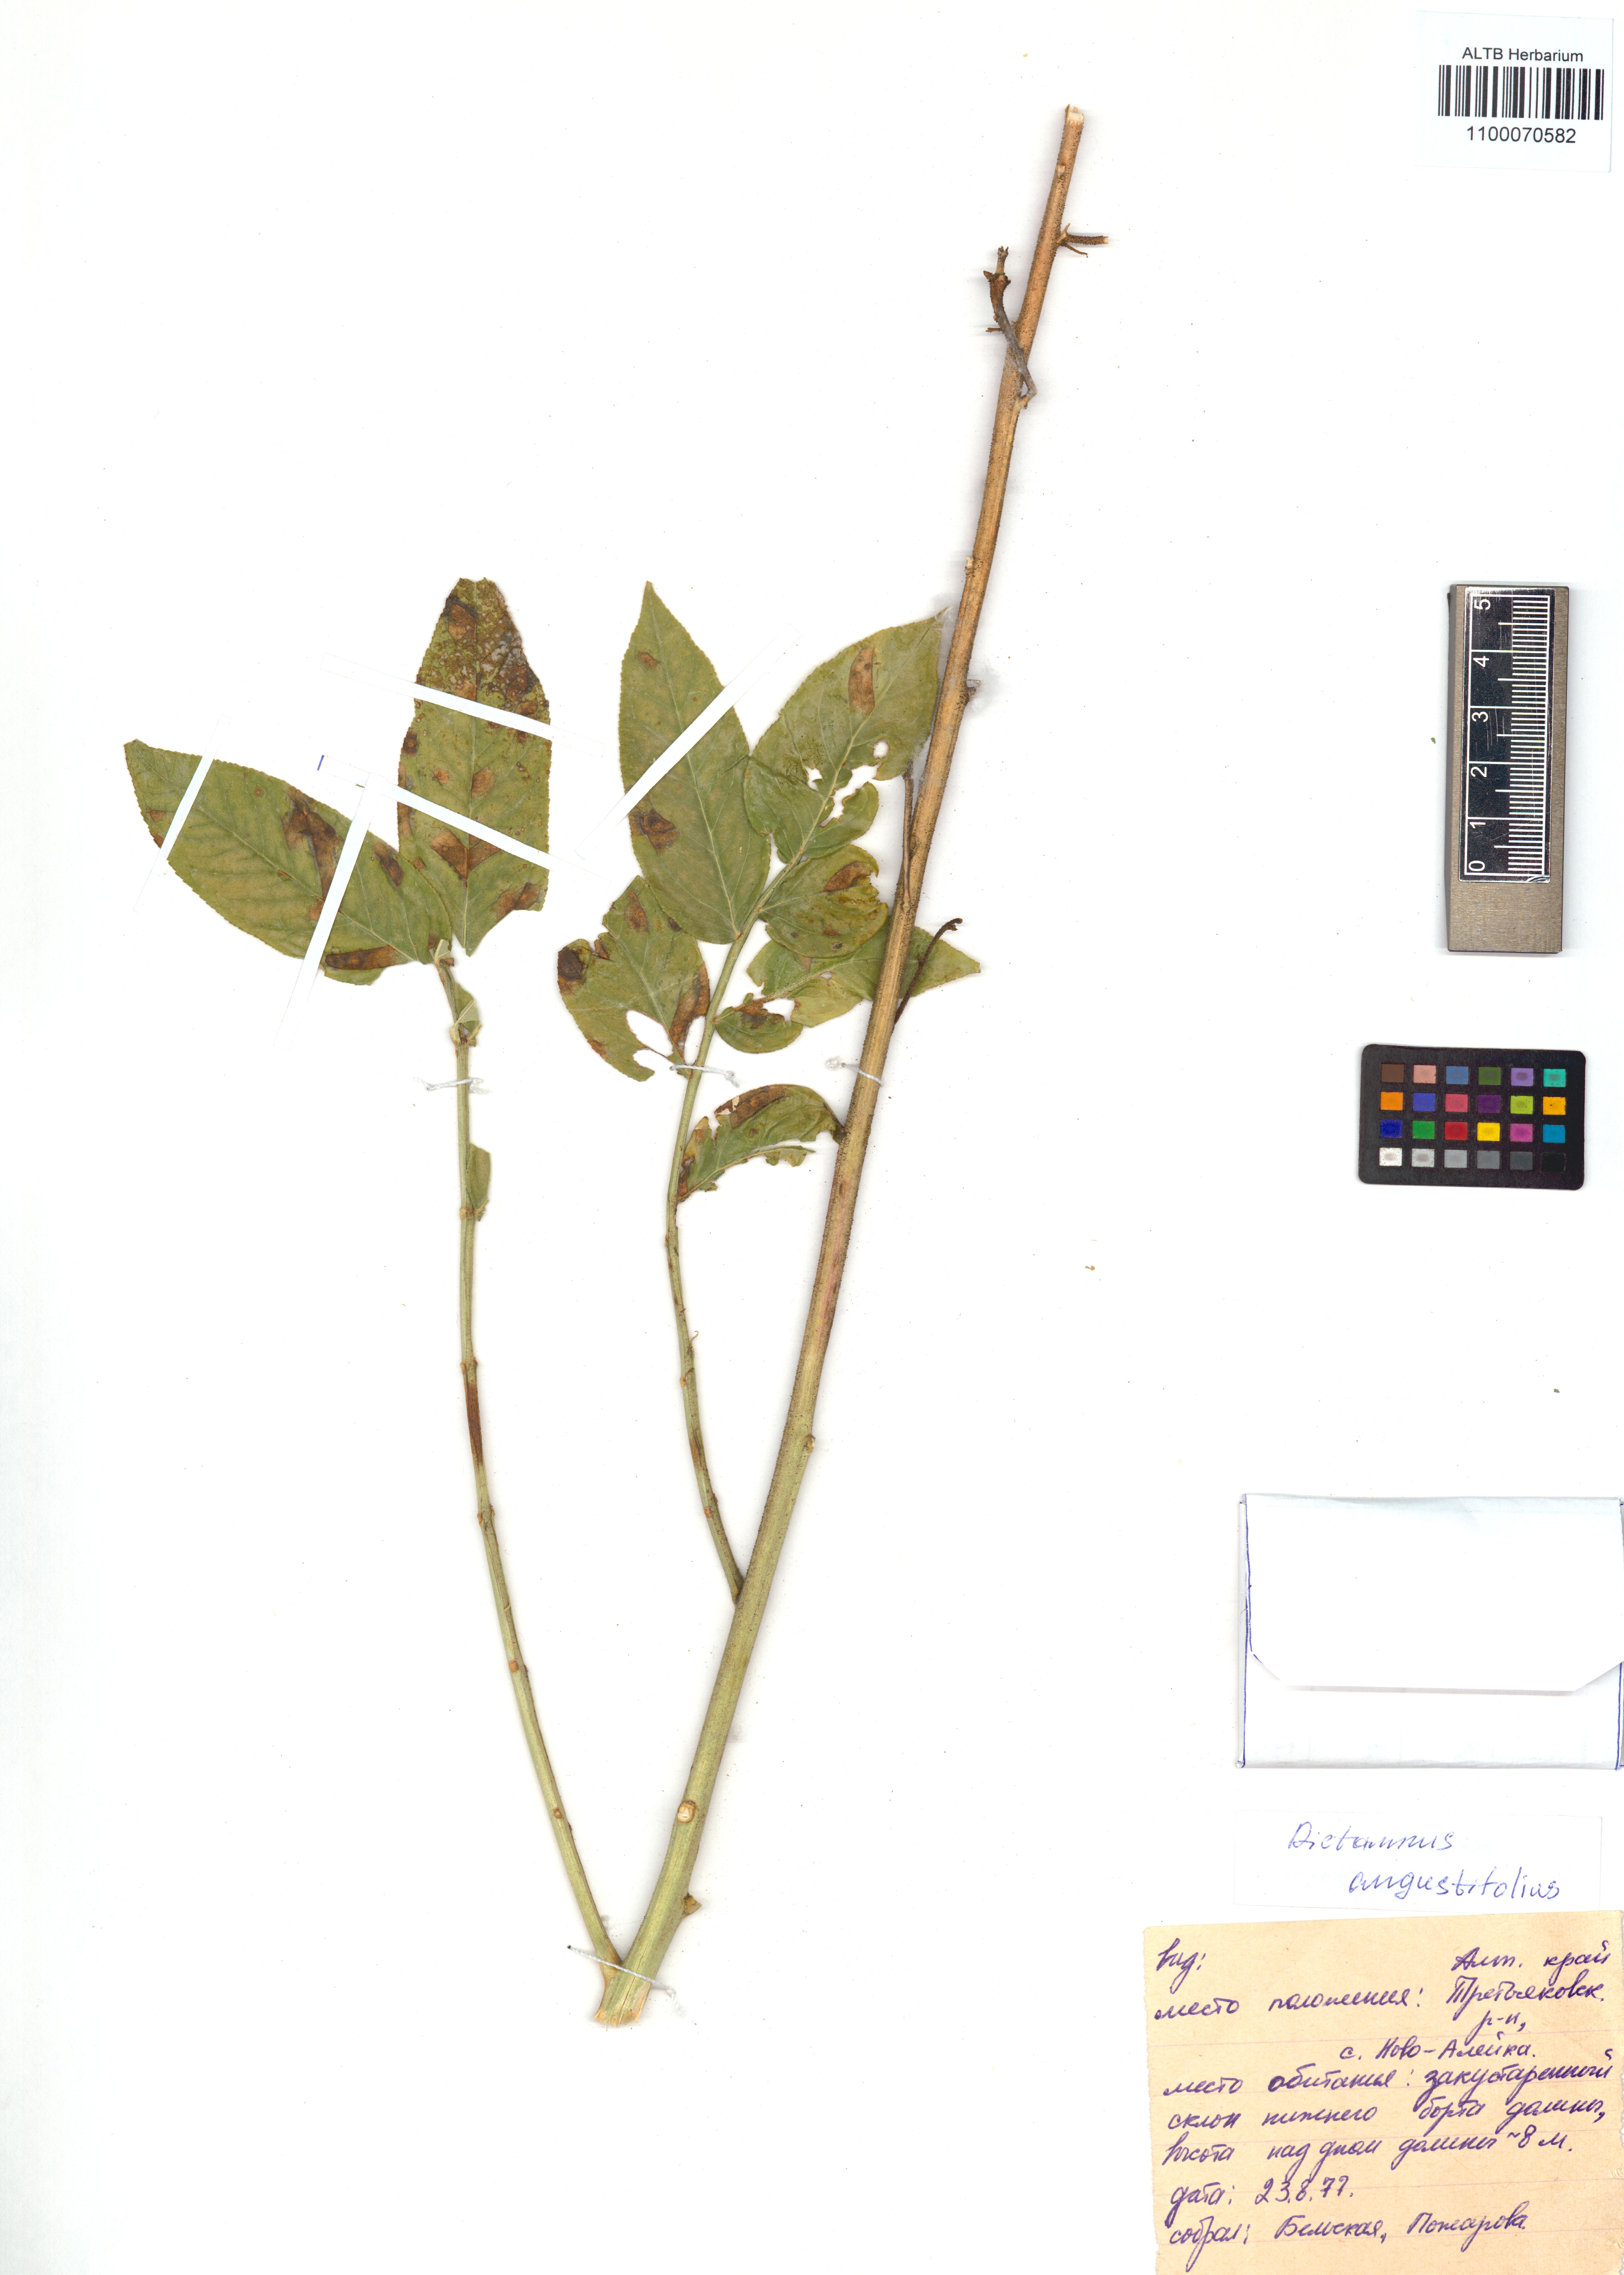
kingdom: Plantae
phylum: Tracheophyta
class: Magnoliopsida
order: Sapindales
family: Rutaceae
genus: Dictamnus
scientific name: Dictamnus albus
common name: Gasplant
